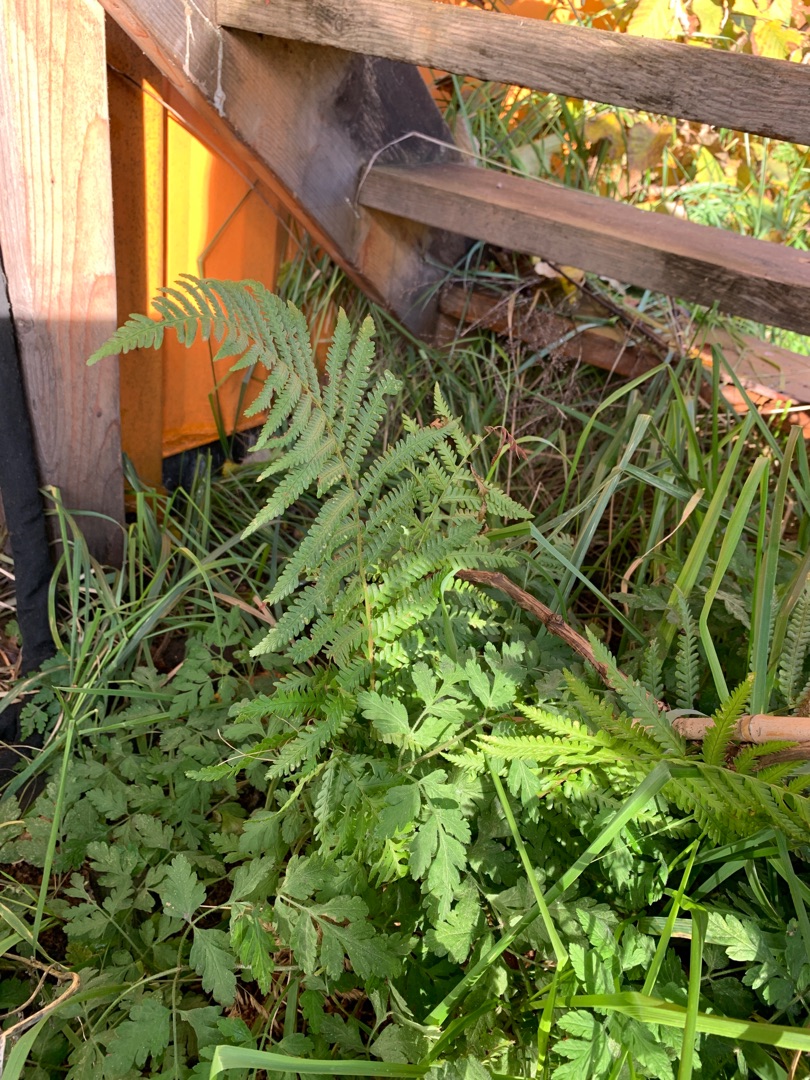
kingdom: Plantae
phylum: Tracheophyta
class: Polypodiopsida
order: Polypodiales
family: Dryopteridaceae
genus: Dryopteris
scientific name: Dryopteris filix-mas
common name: Almindelig mangeløv
